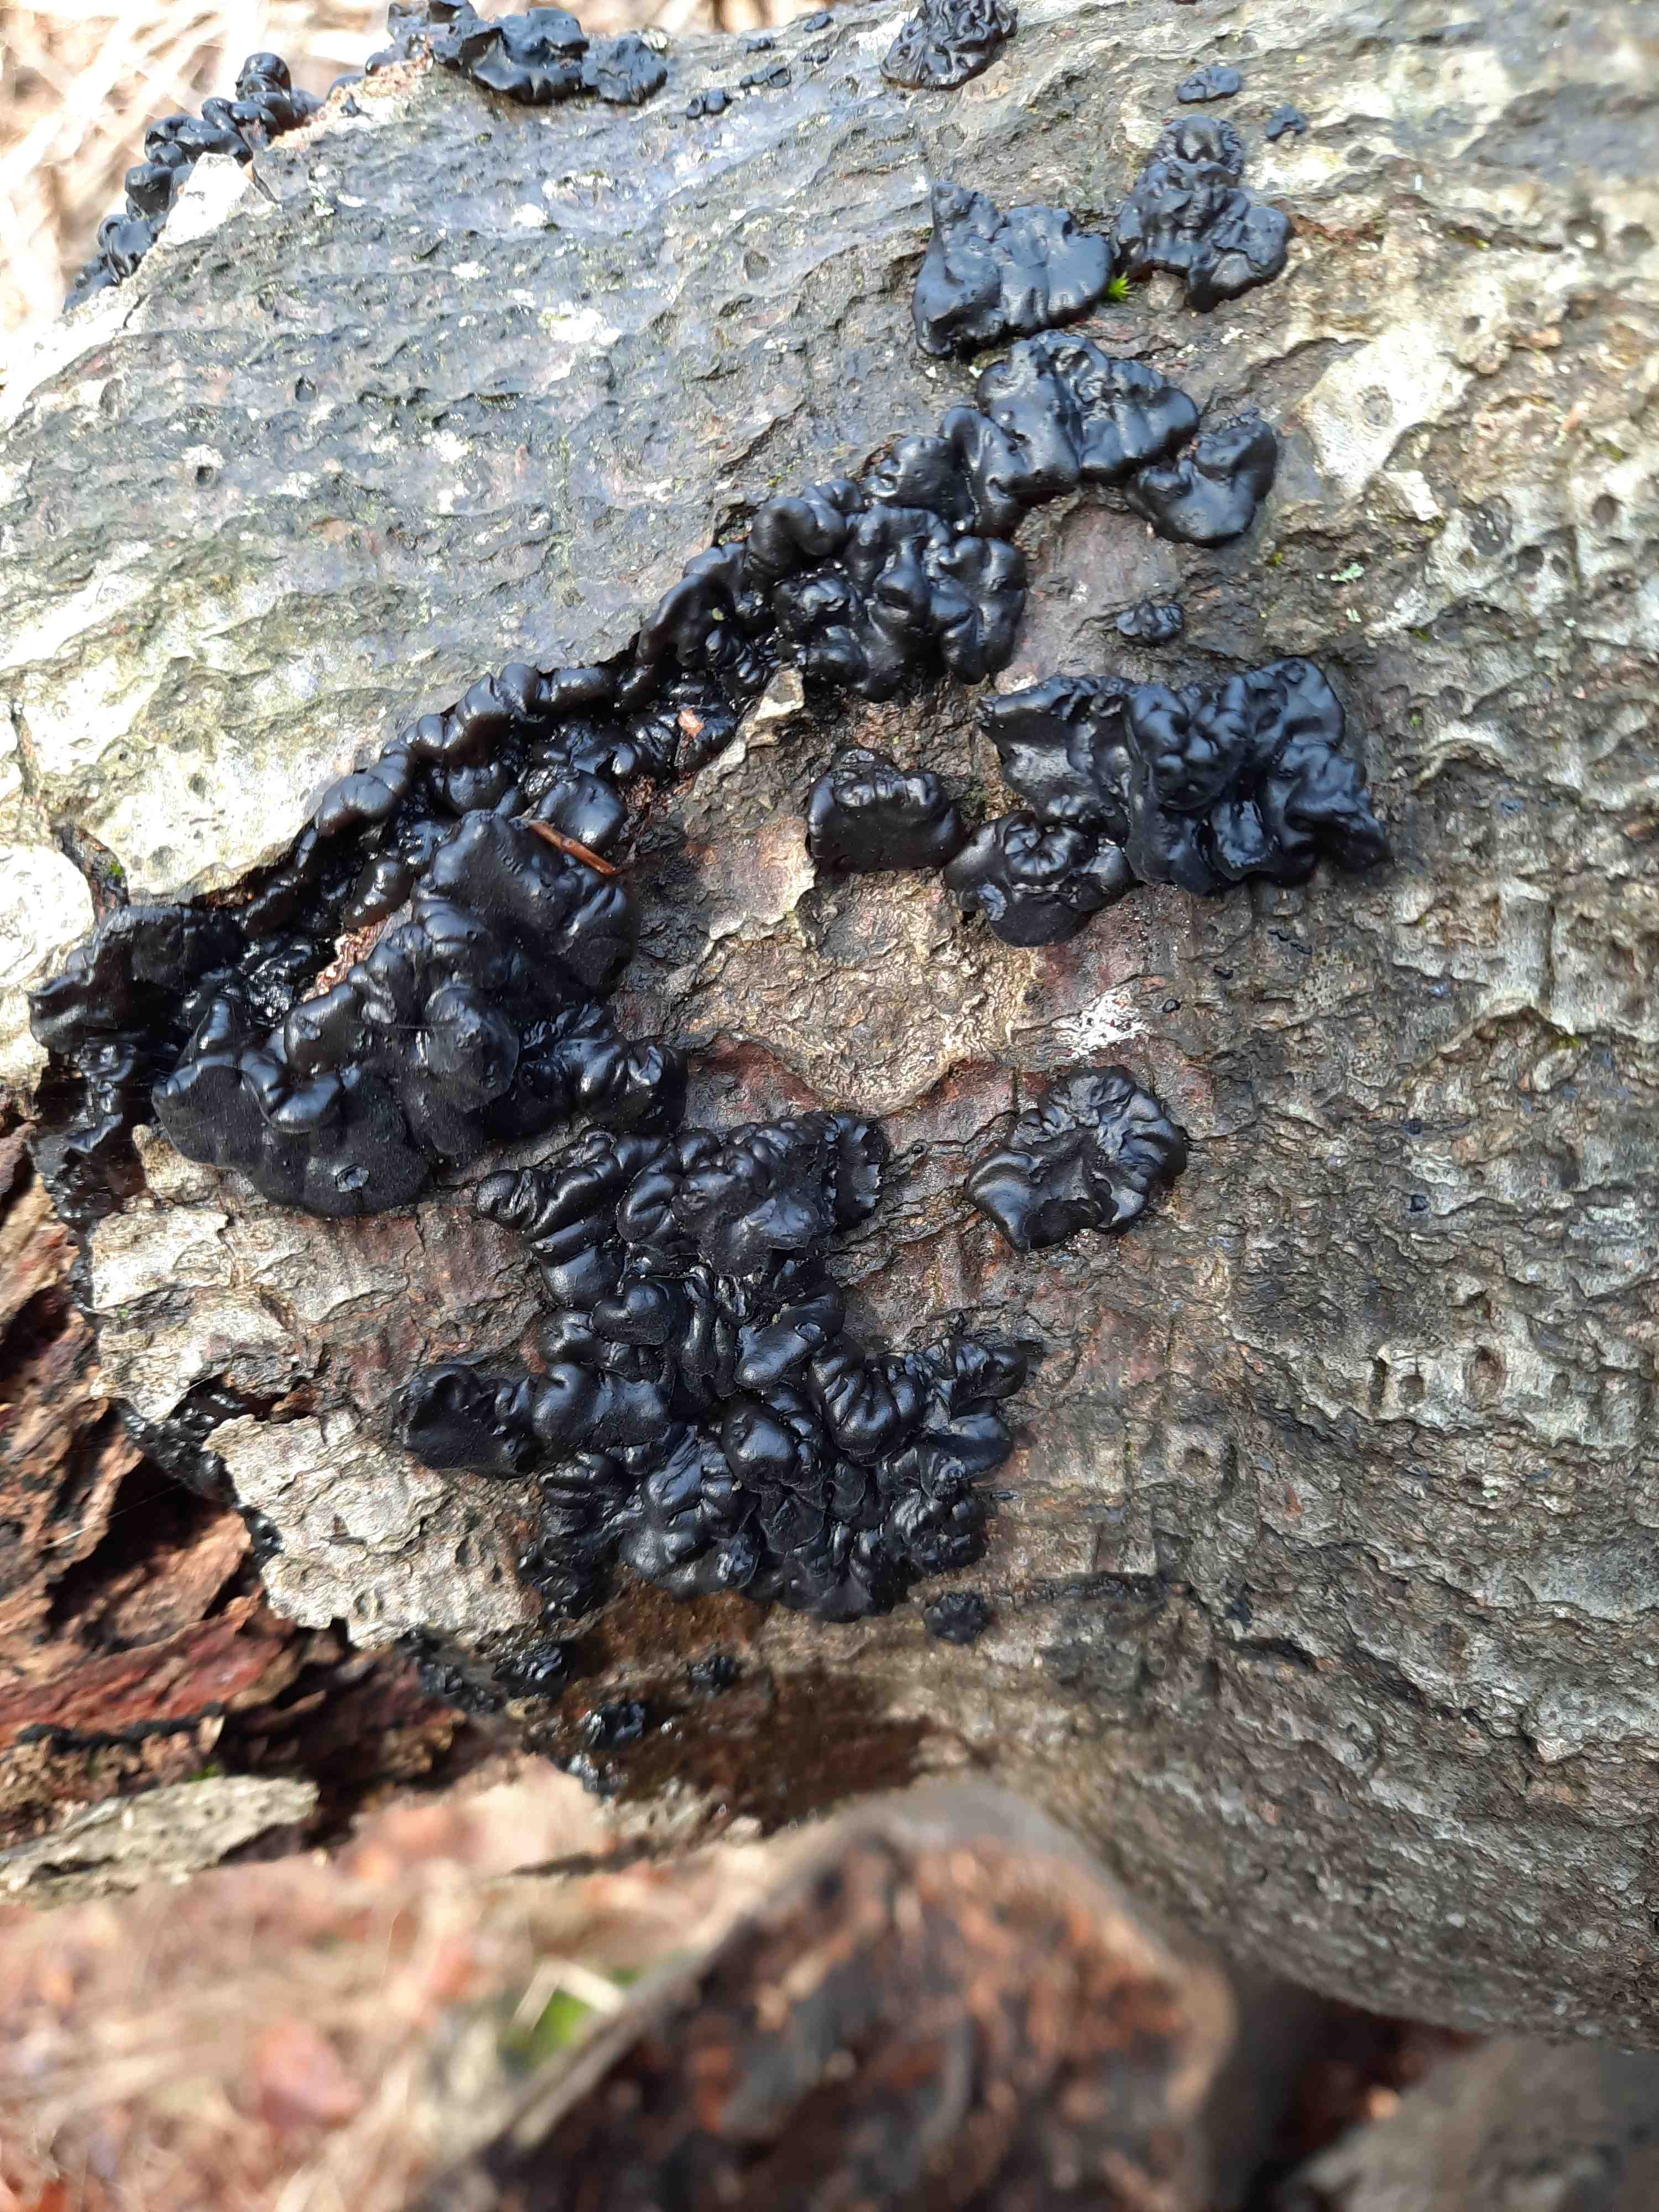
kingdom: Fungi
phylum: Basidiomycota
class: Agaricomycetes
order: Auriculariales
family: Auriculariaceae
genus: Exidia
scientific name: Exidia nigricans
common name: almindelig bævretop
